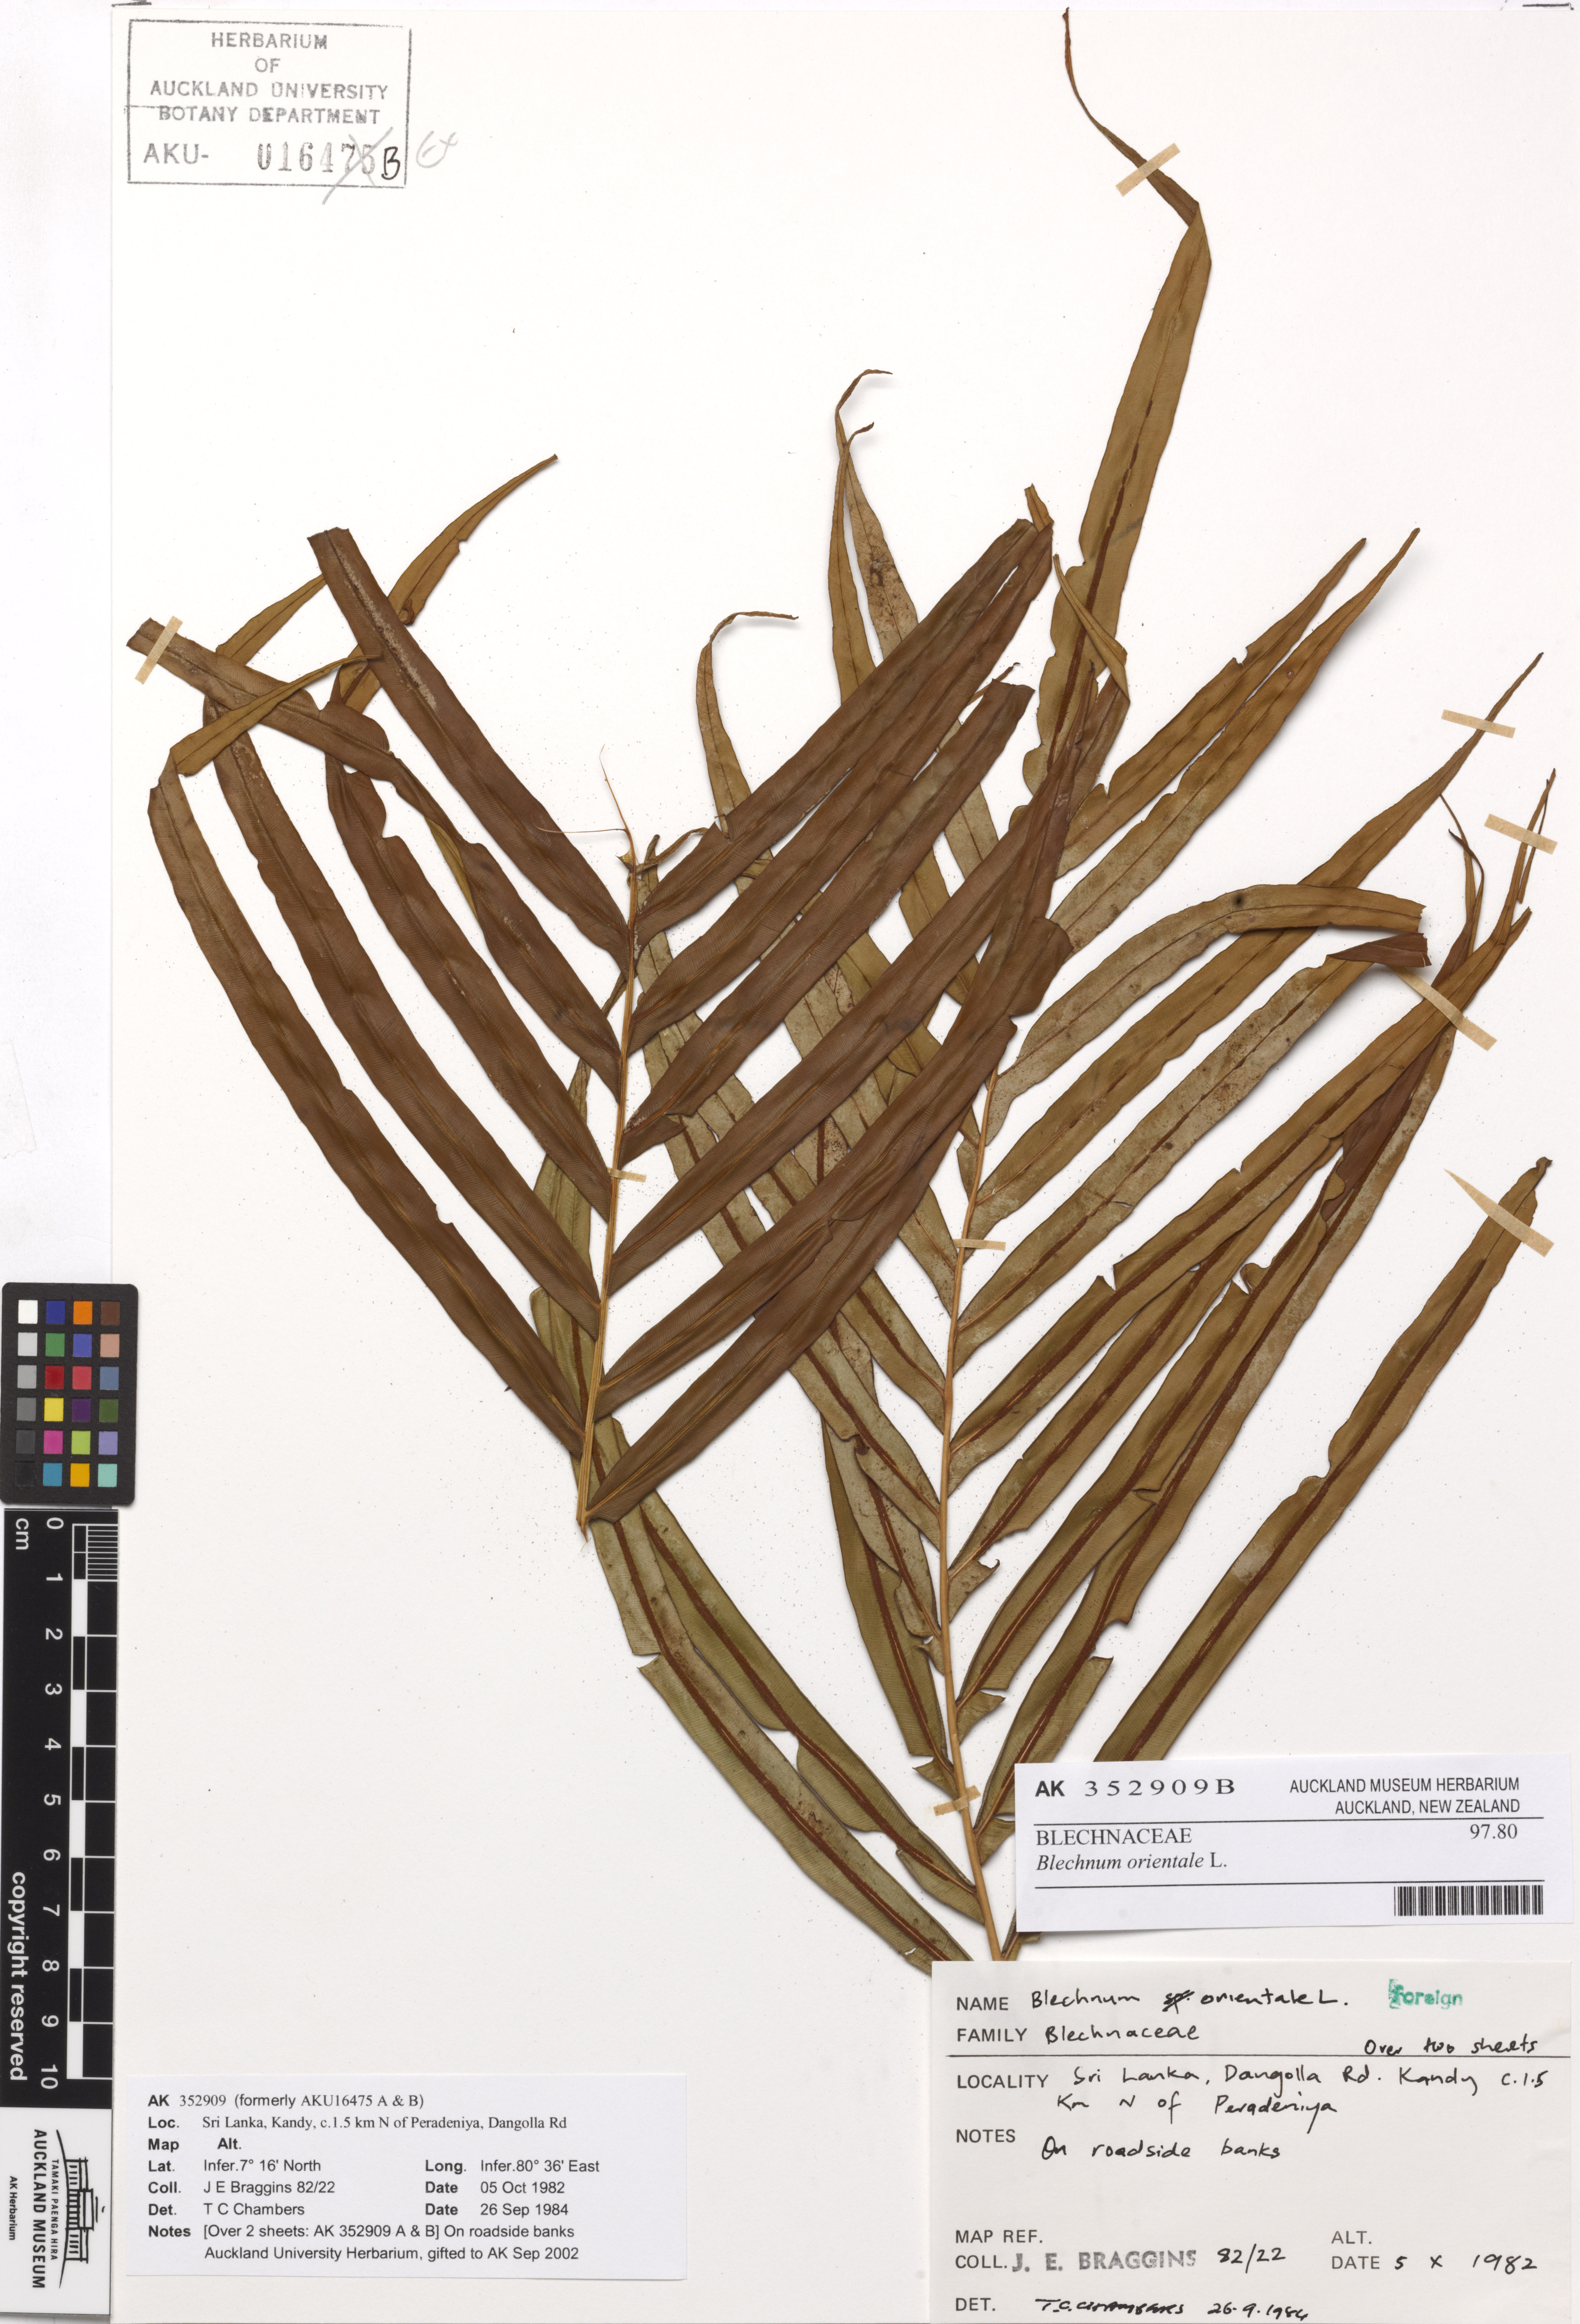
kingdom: Plantae
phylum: Tracheophyta
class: Polypodiopsida
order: Polypodiales
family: Blechnaceae
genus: Blechnopsis
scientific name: Blechnopsis orientalis
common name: Oriental blechnum
